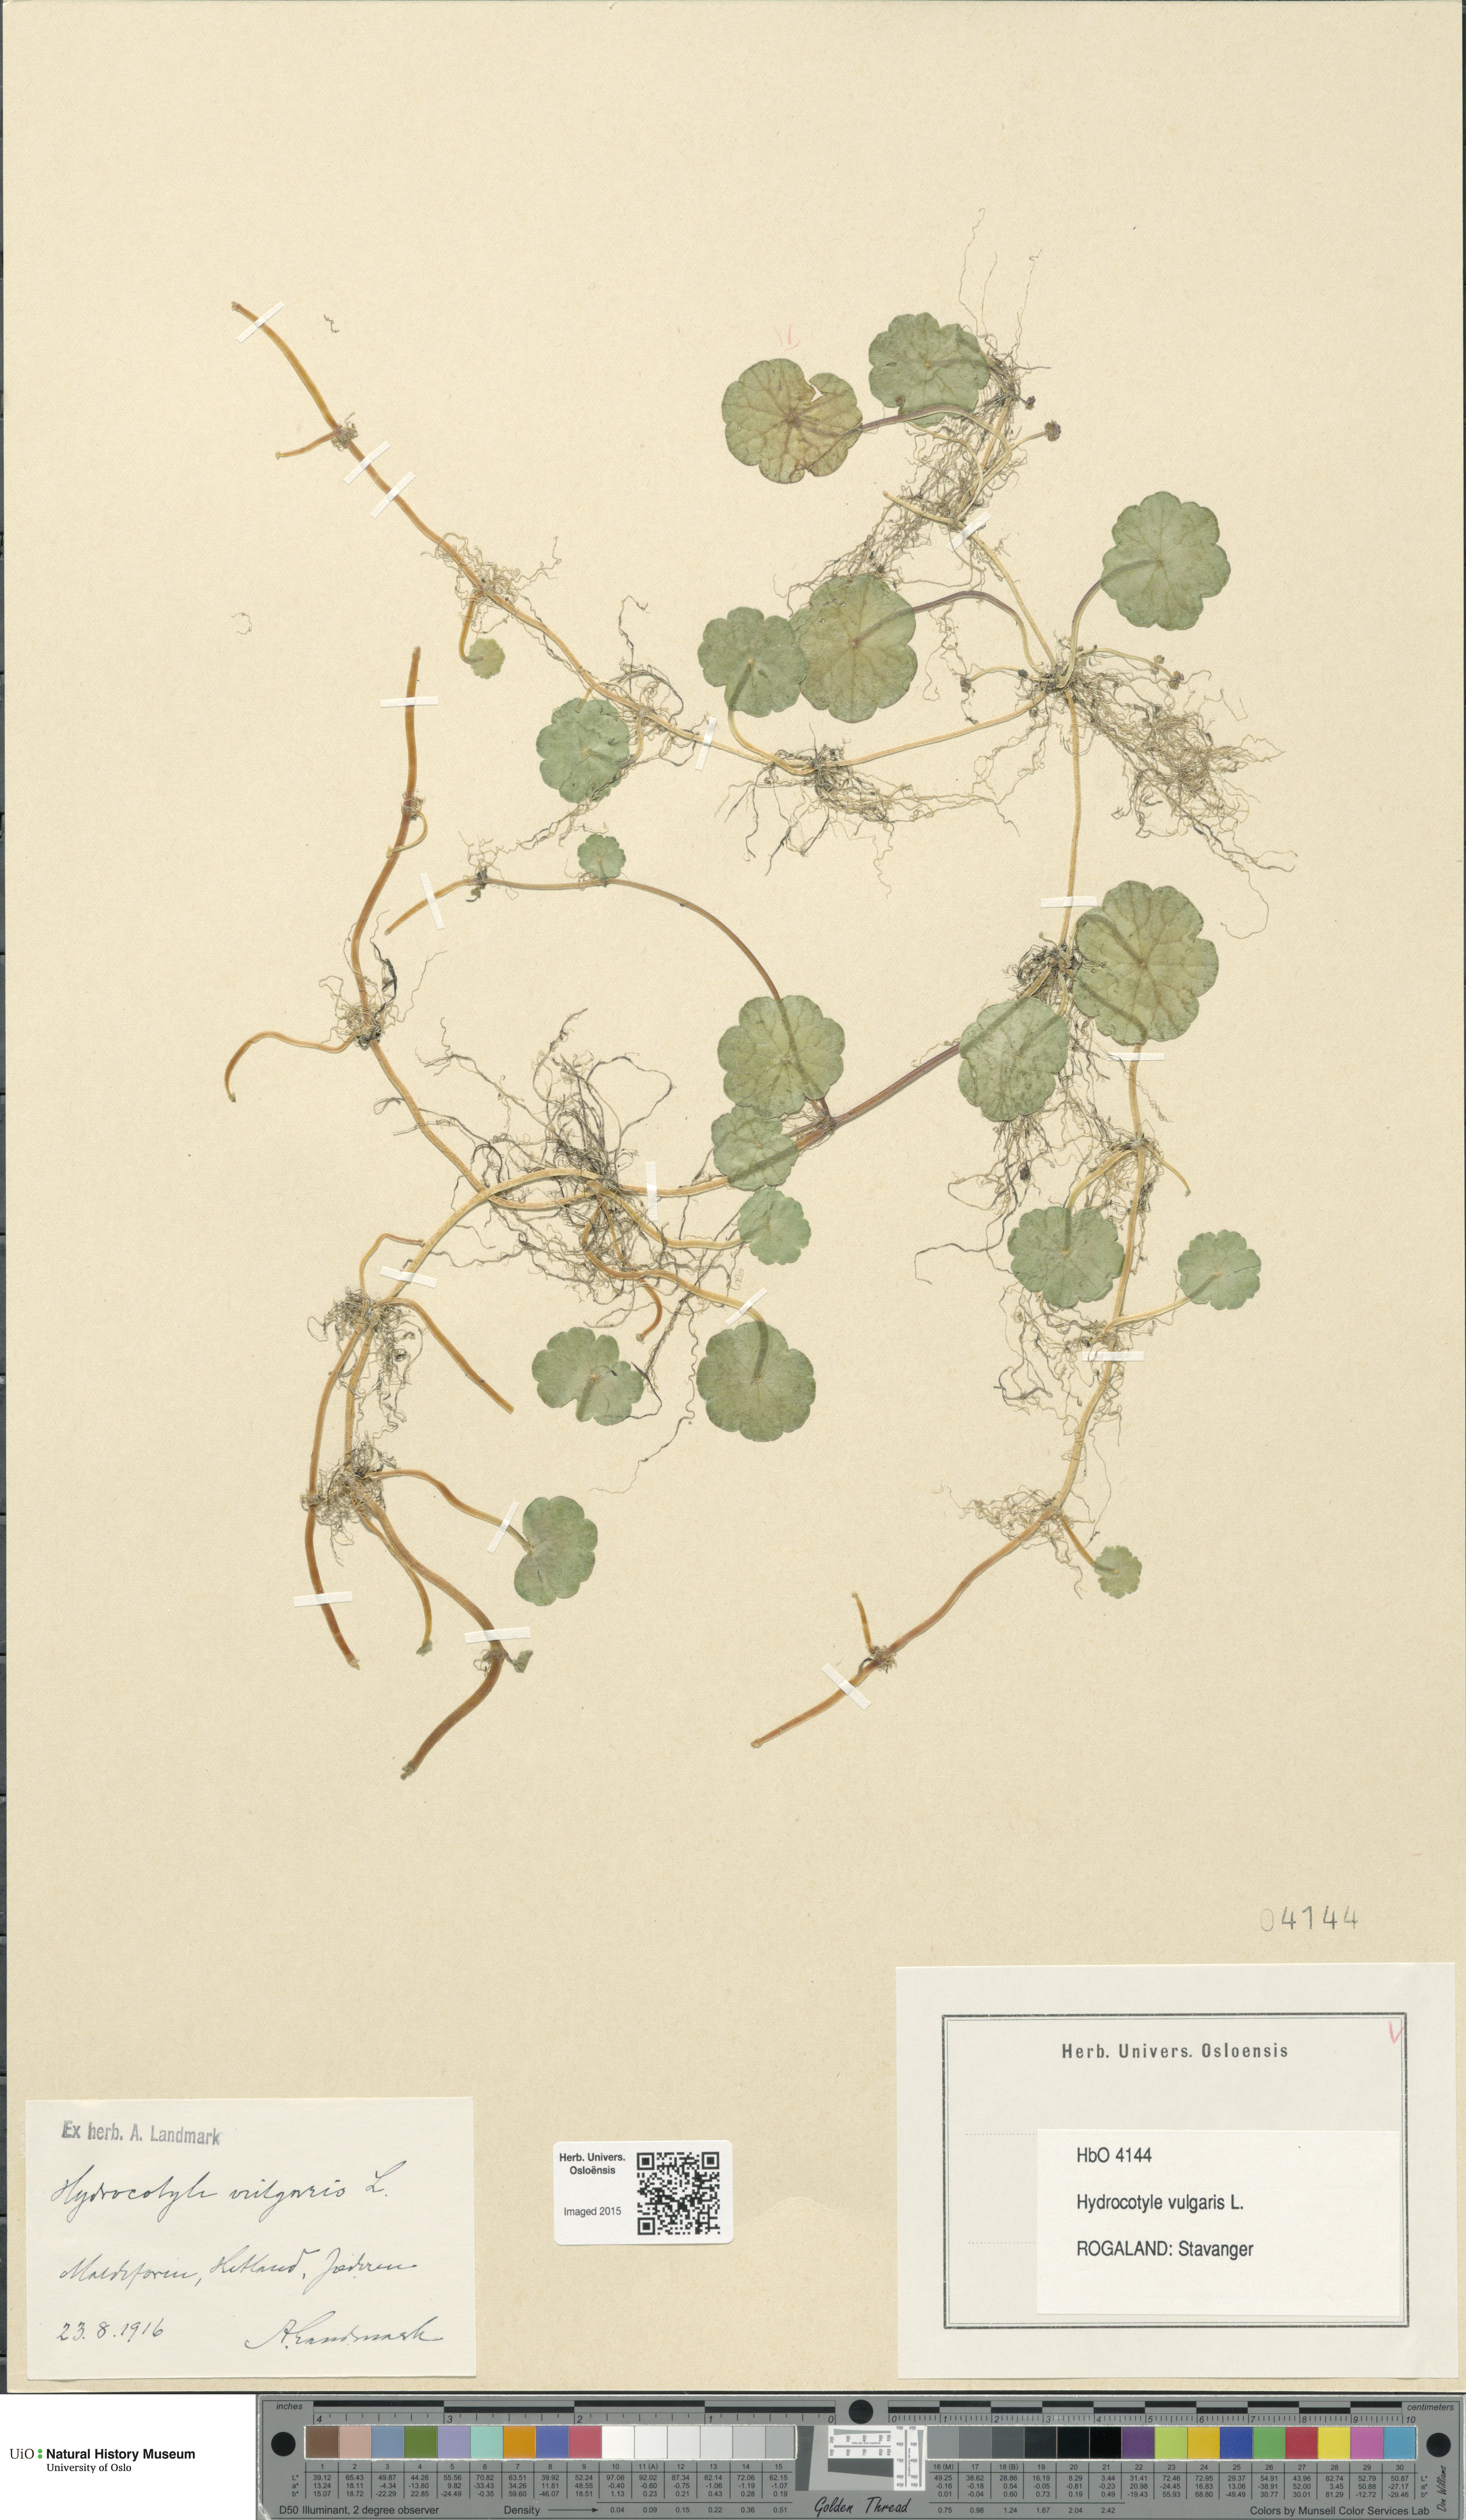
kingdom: Plantae
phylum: Tracheophyta
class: Magnoliopsida
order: Apiales
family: Araliaceae
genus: Hydrocotyle
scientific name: Hydrocotyle vulgaris
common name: Marsh pennywort
